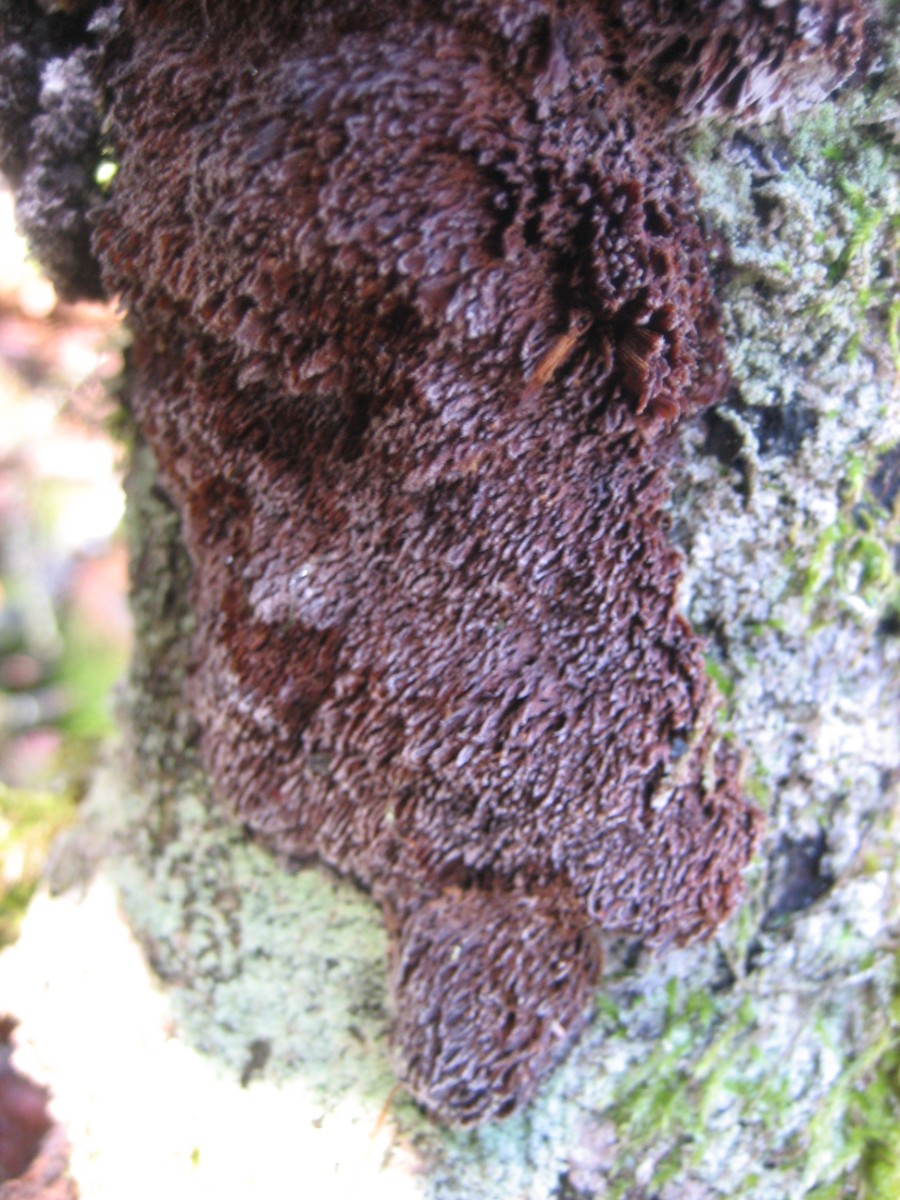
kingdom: Fungi
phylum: Basidiomycota
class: Agaricomycetes
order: Hymenochaetales
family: Hymenochaetaceae
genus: Mensularia
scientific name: Mensularia nodulosa
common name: bøge-spejlporesvamp
